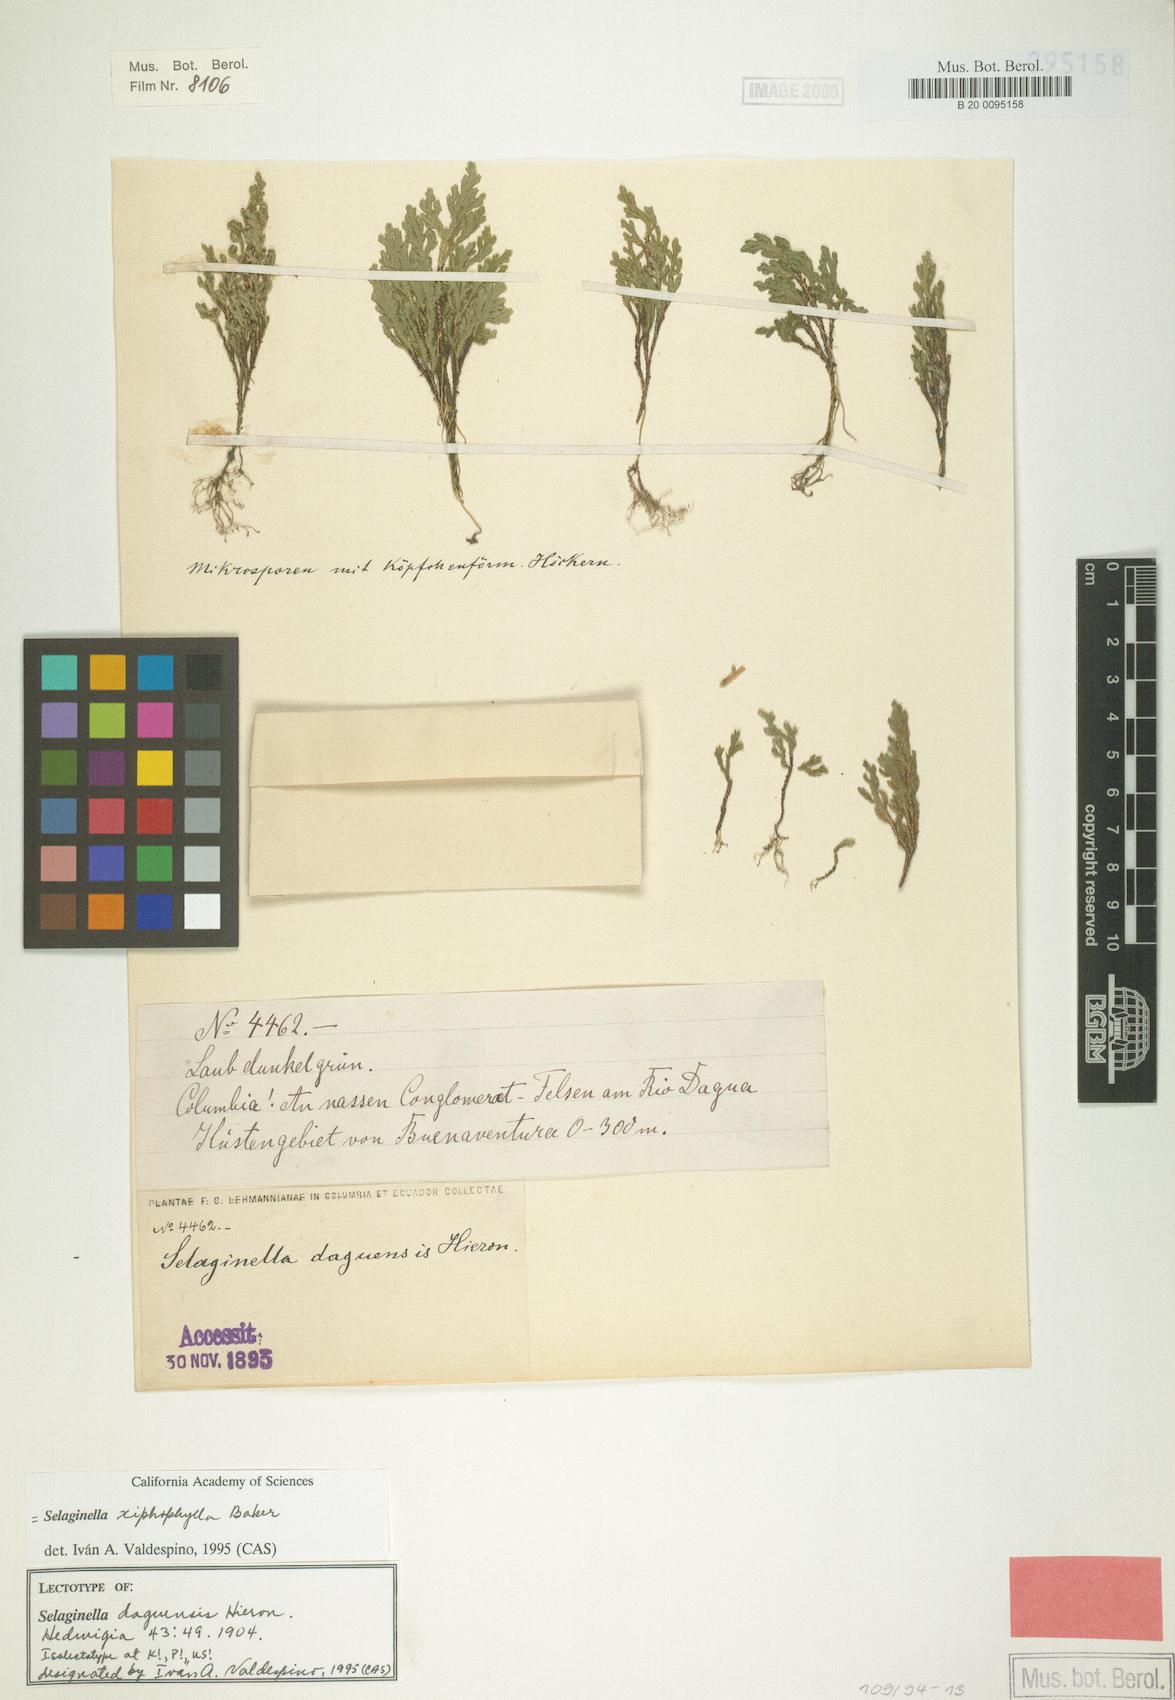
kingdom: Plantae
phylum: Tracheophyta
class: Lycopodiopsida
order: Selaginellales
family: Selaginellaceae
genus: Selaginella
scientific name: Selaginella xiphophylla
